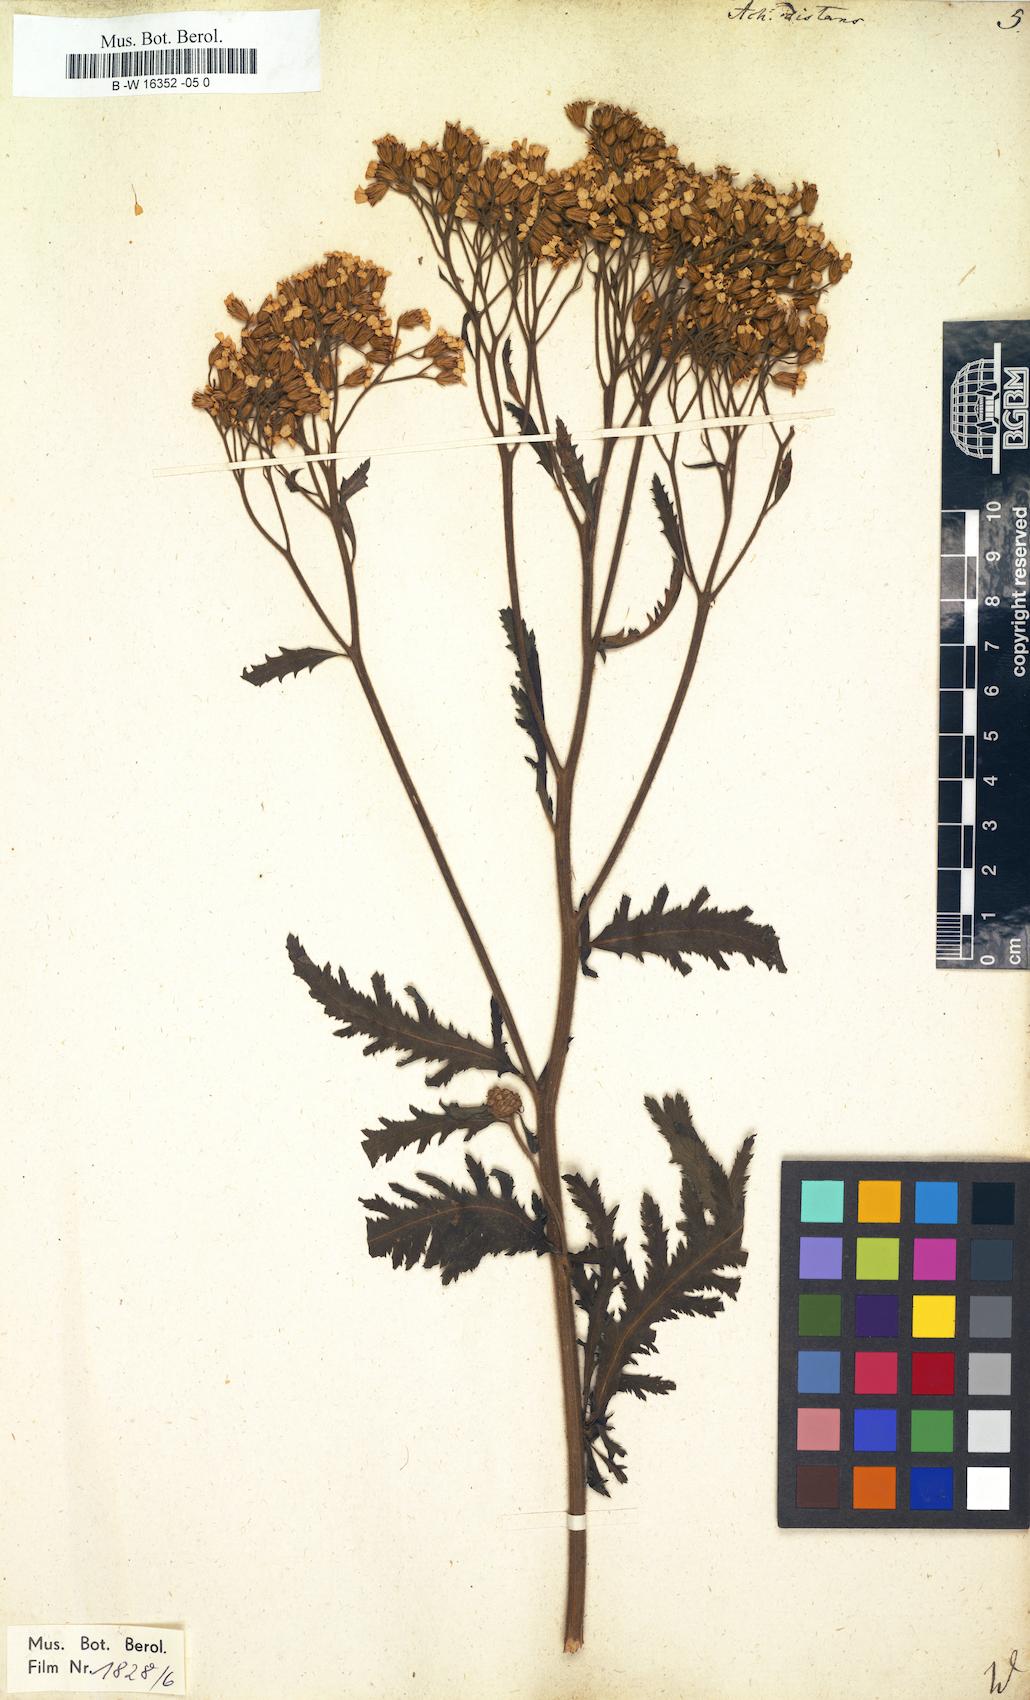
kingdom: Plantae
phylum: Tracheophyta
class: Magnoliopsida
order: Asterales
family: Asteraceae
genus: Achillea
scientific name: Achillea distans
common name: Tall yarrow
